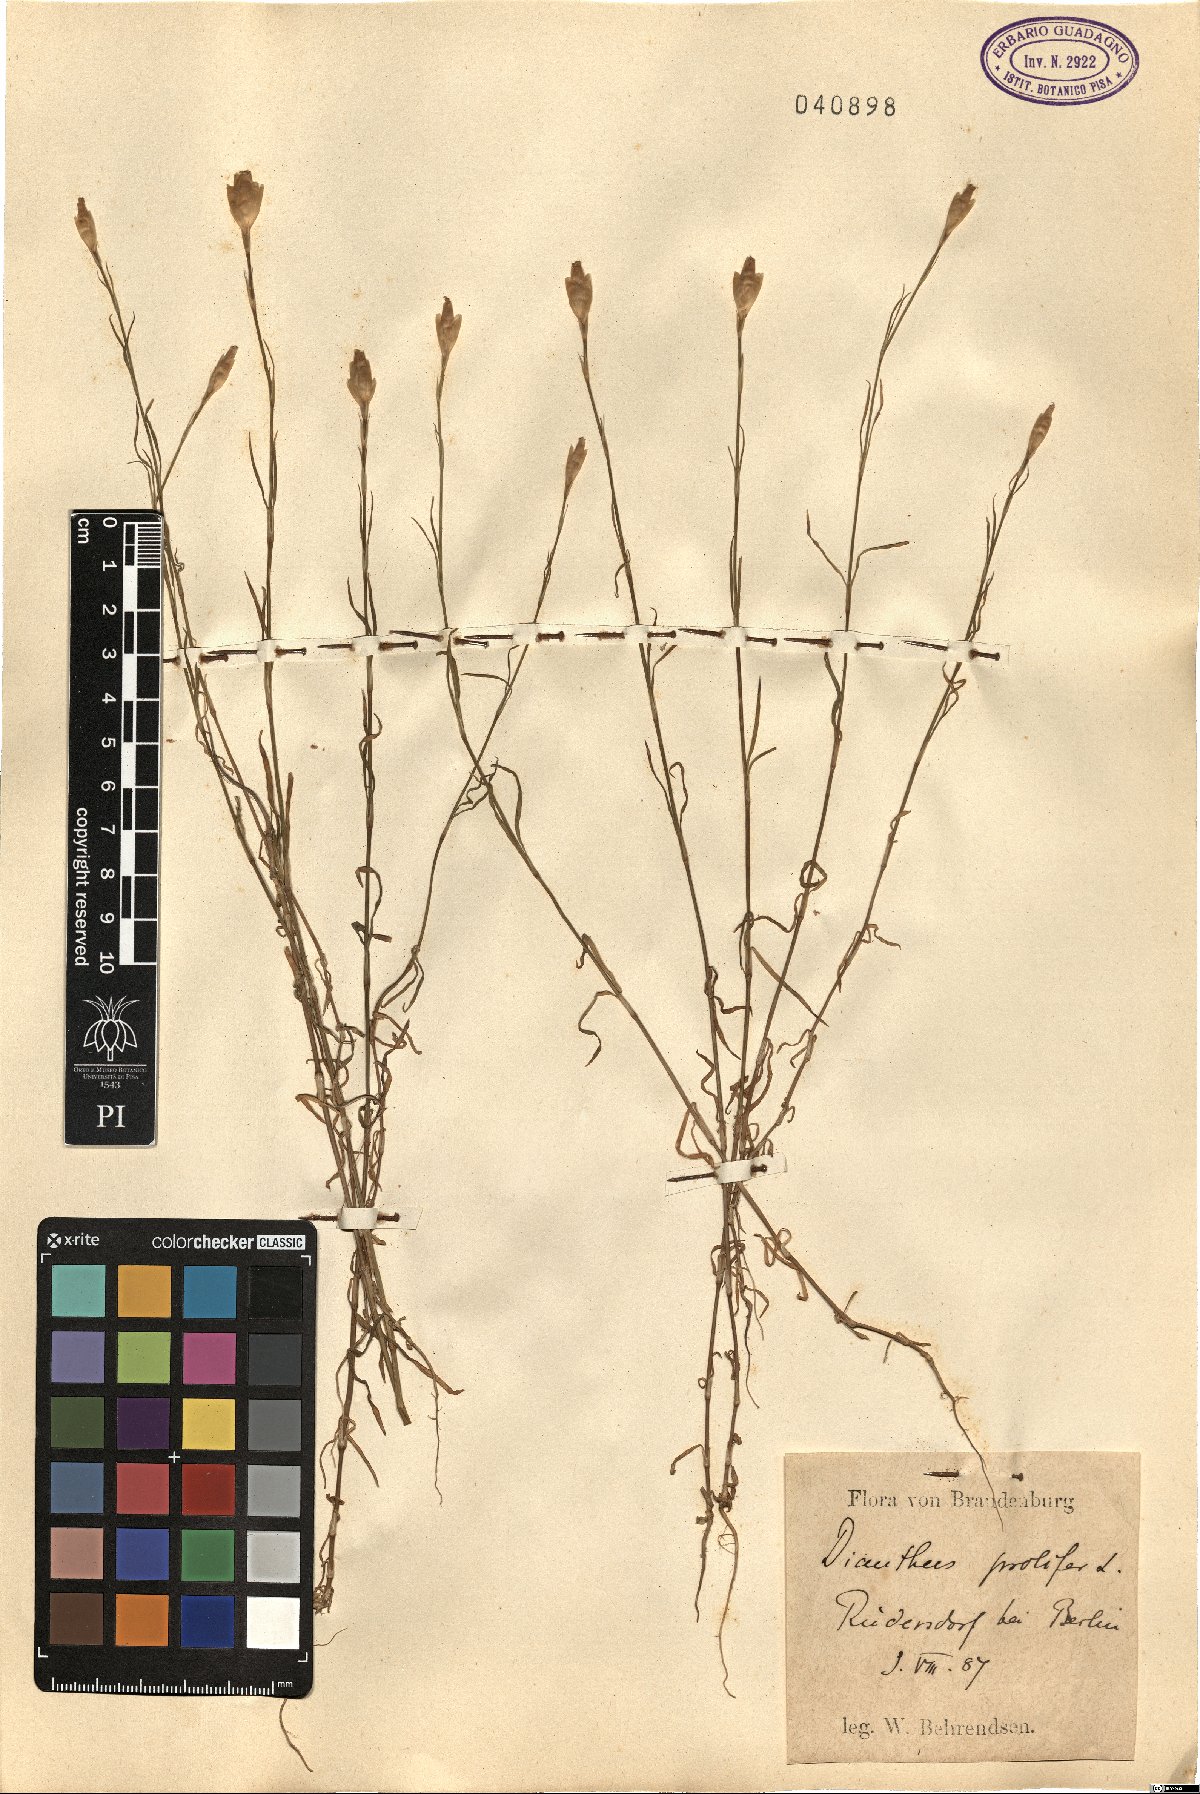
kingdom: Plantae
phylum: Tracheophyta
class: Magnoliopsida
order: Caryophyllales
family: Caryophyllaceae
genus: Petrorhagia
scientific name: Petrorhagia prolifera
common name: Proliferous pink
